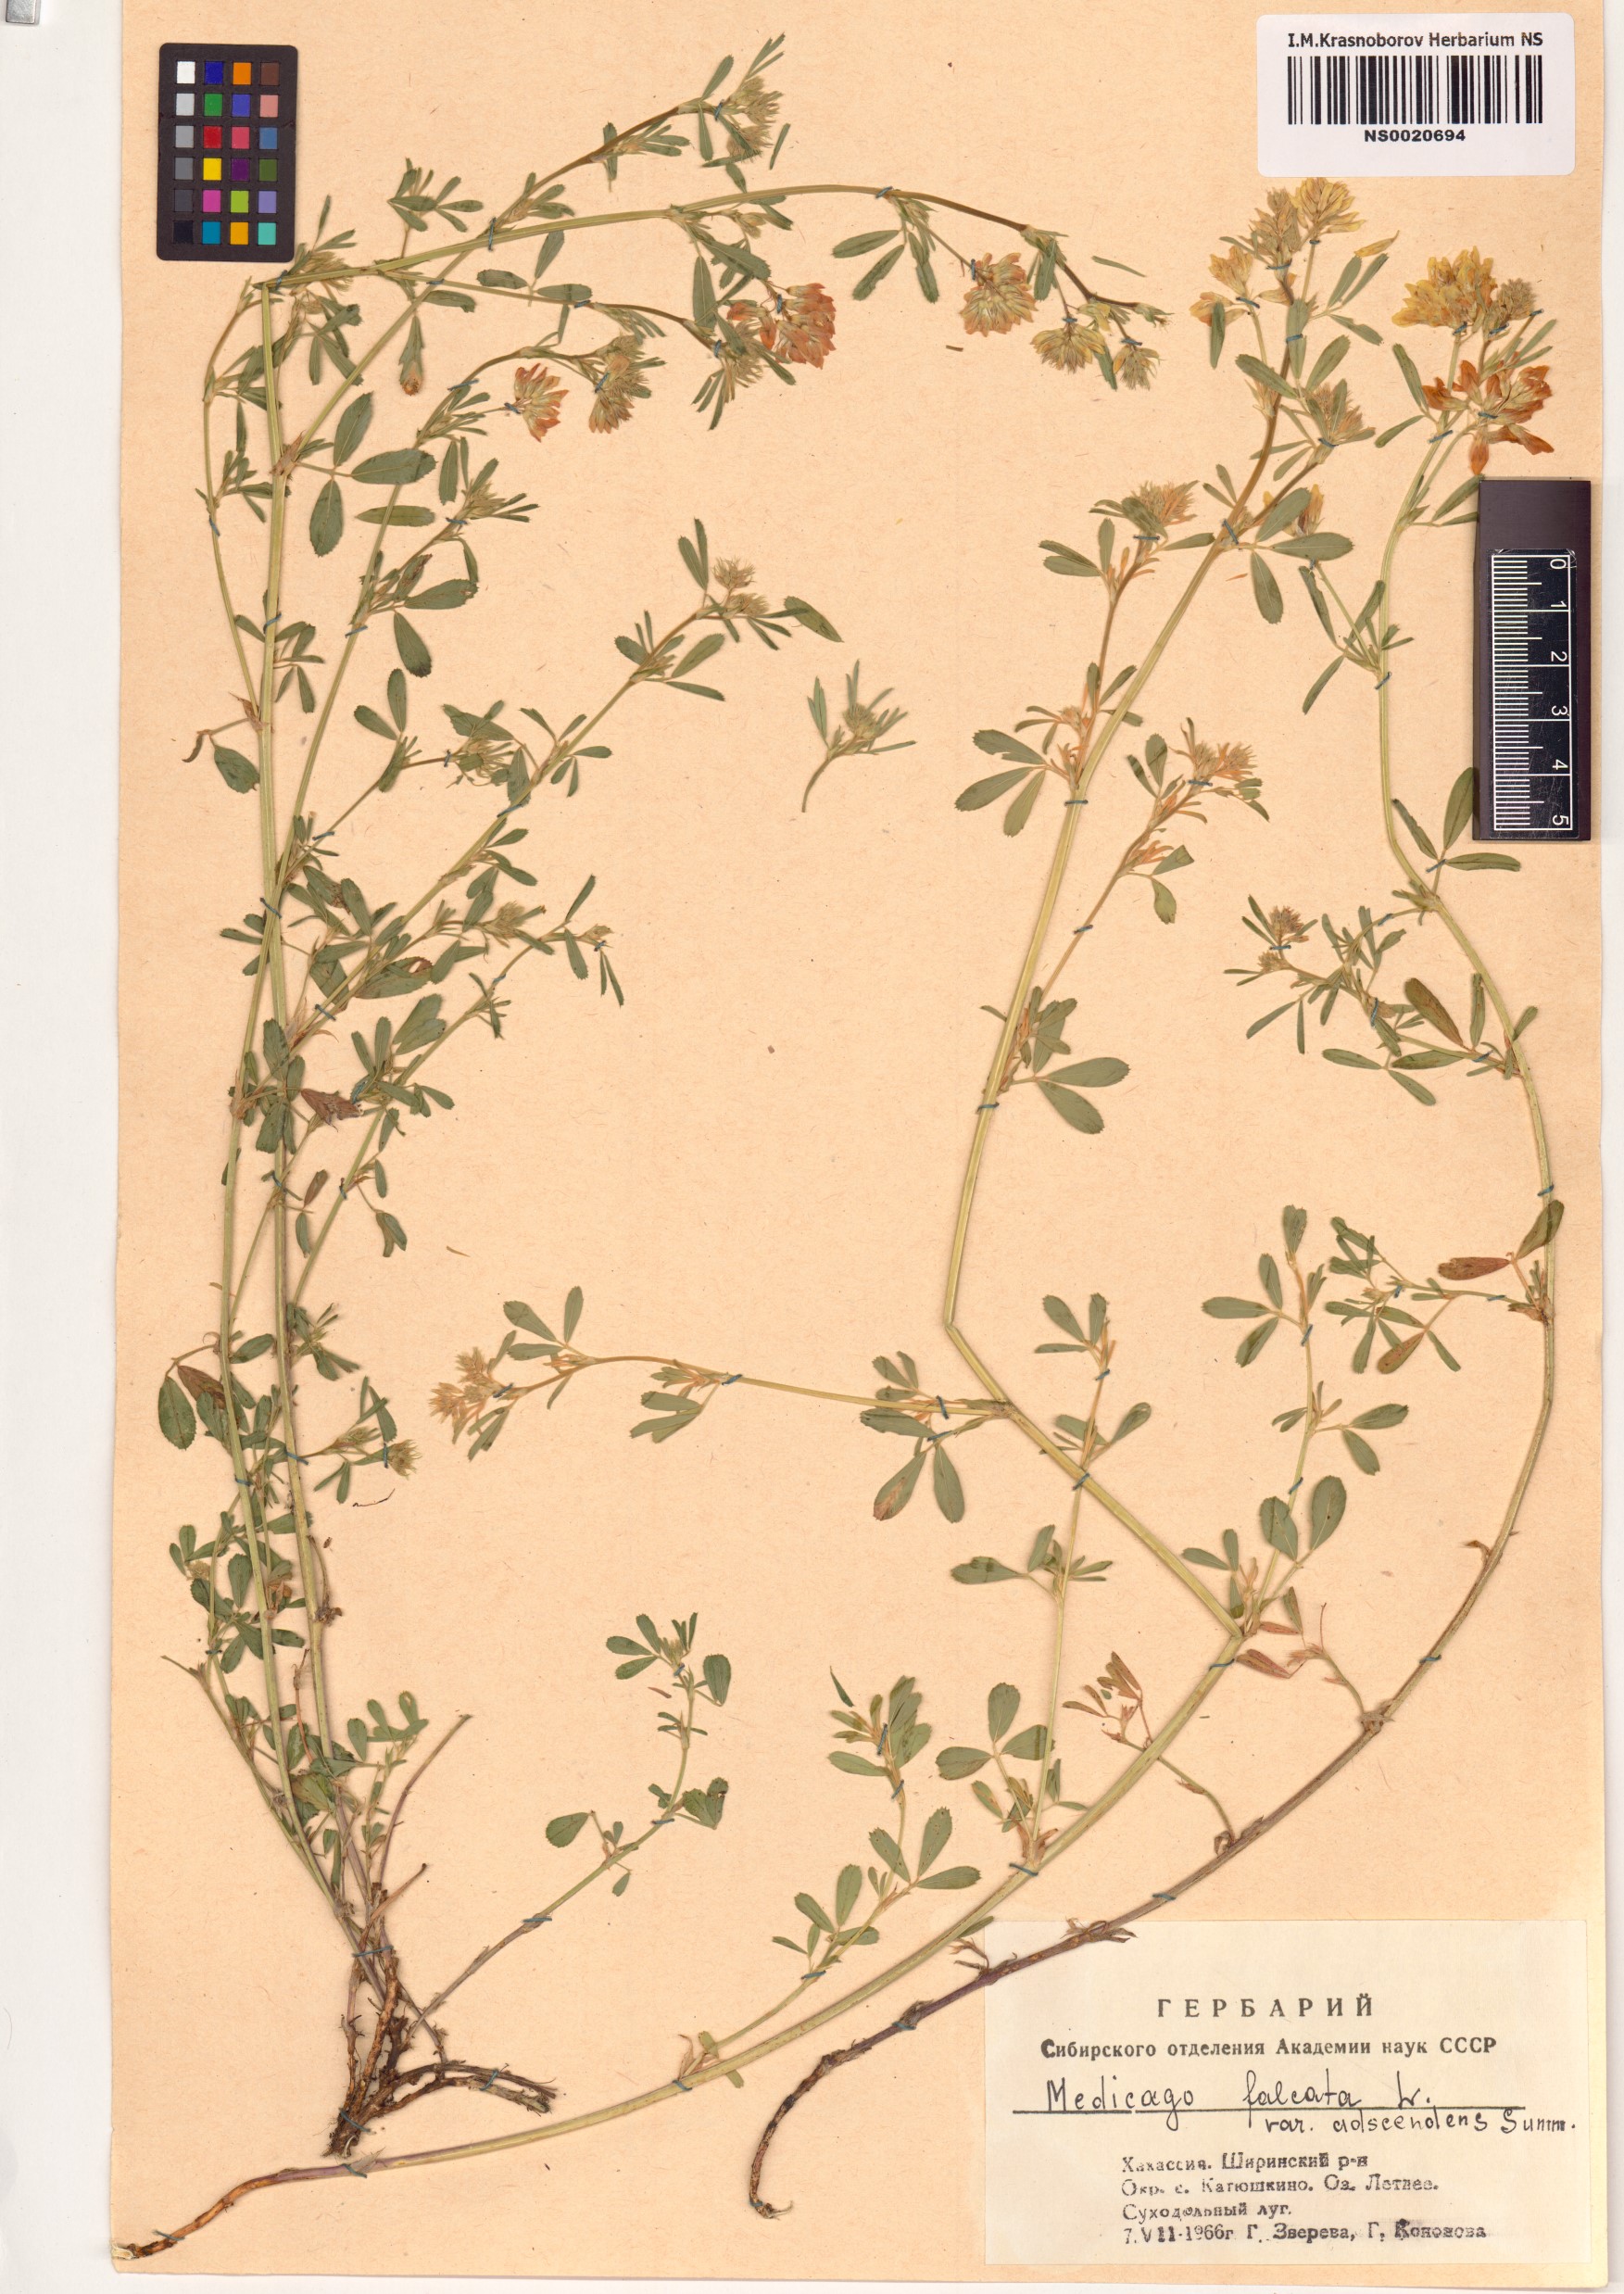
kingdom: Plantae
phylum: Tracheophyta
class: Magnoliopsida
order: Fabales
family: Fabaceae
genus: Medicago
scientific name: Medicago falcata
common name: Sickle medick
